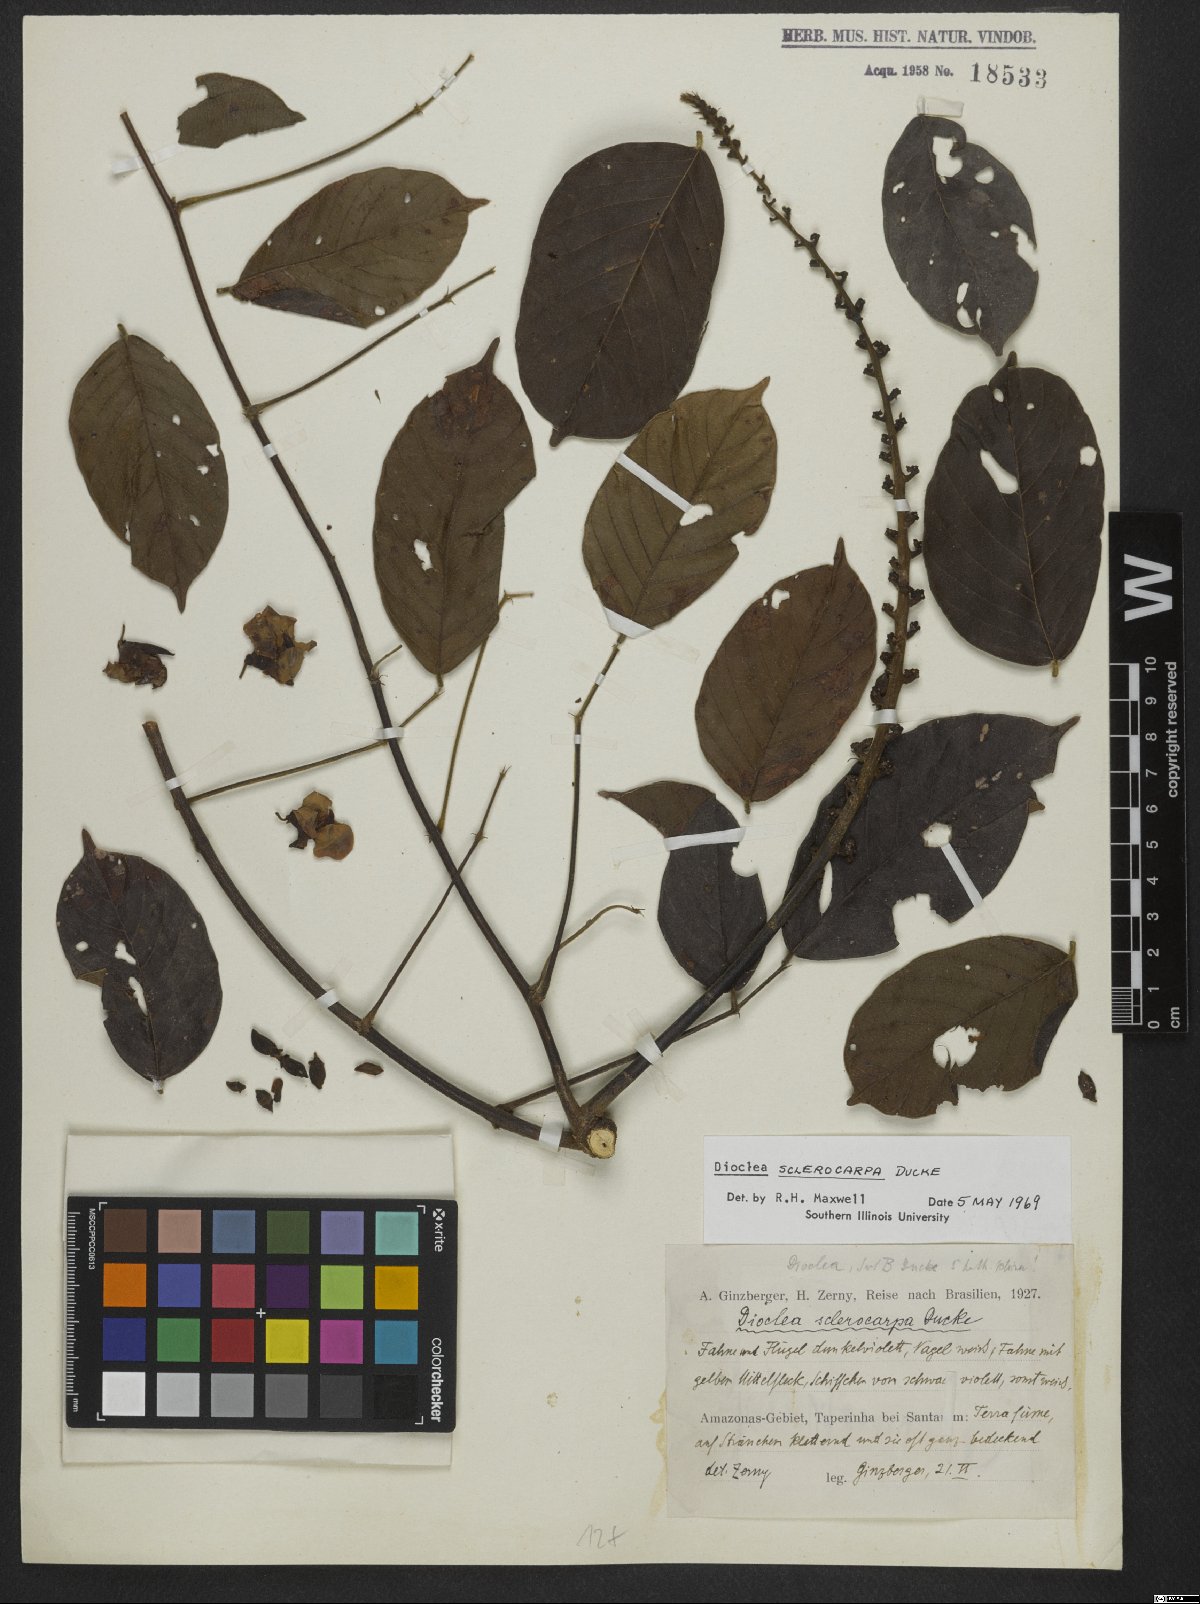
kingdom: Plantae
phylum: Tracheophyta
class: Magnoliopsida
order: Fabales
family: Fabaceae
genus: Macropsychanthus
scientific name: Macropsychanthus sclerocarpus
